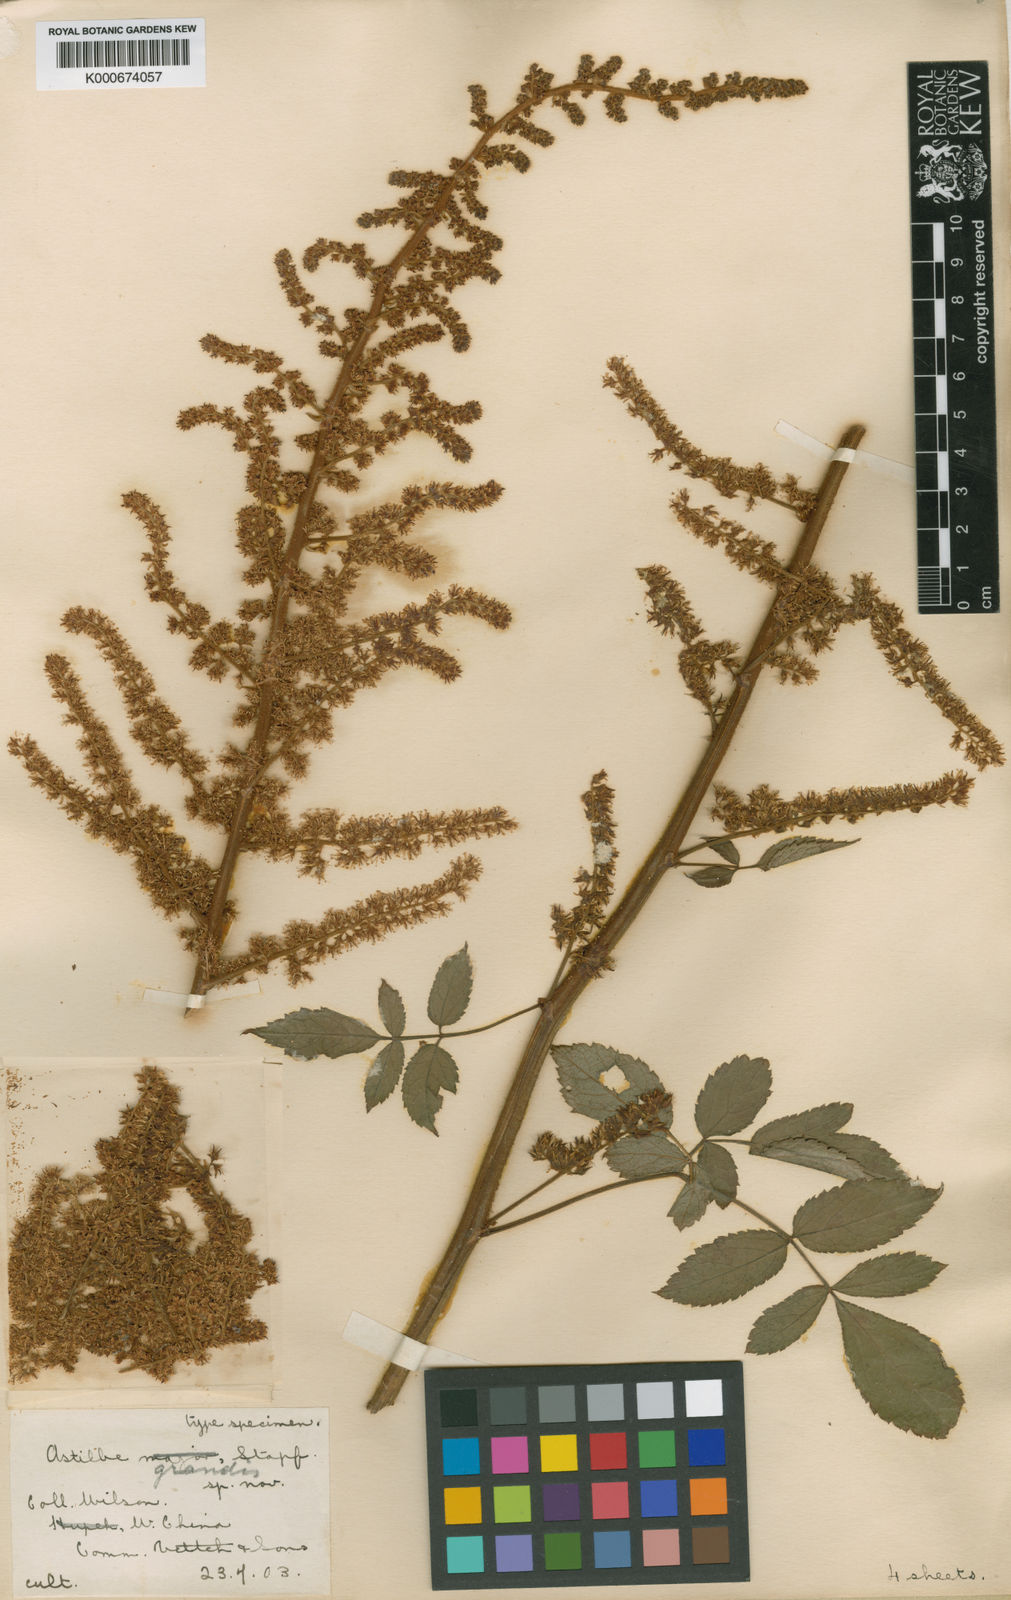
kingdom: Plantae
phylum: Tracheophyta
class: Magnoliopsida
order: Saxifragales
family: Saxifragaceae
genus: Astilbe
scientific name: Astilbe grandis
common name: Korean astilbe
